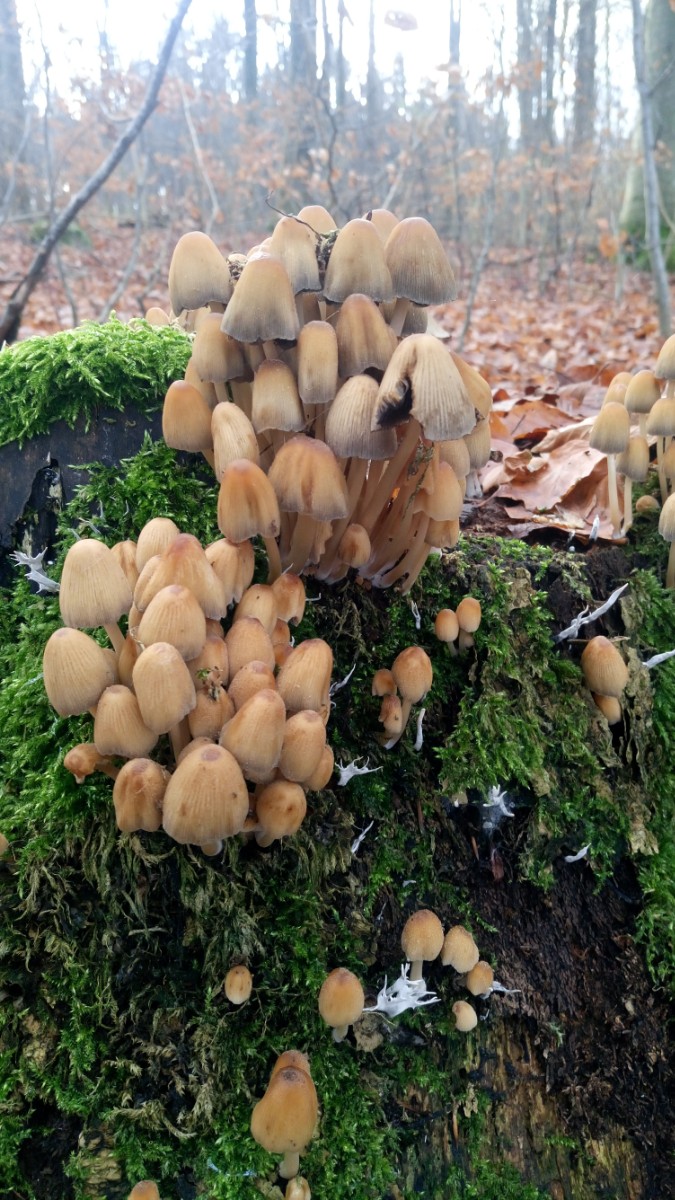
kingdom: Fungi
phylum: Basidiomycota
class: Agaricomycetes
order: Agaricales
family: Psathyrellaceae
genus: Coprinellus
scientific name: Coprinellus micaceus
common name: glimmer-blækhat
